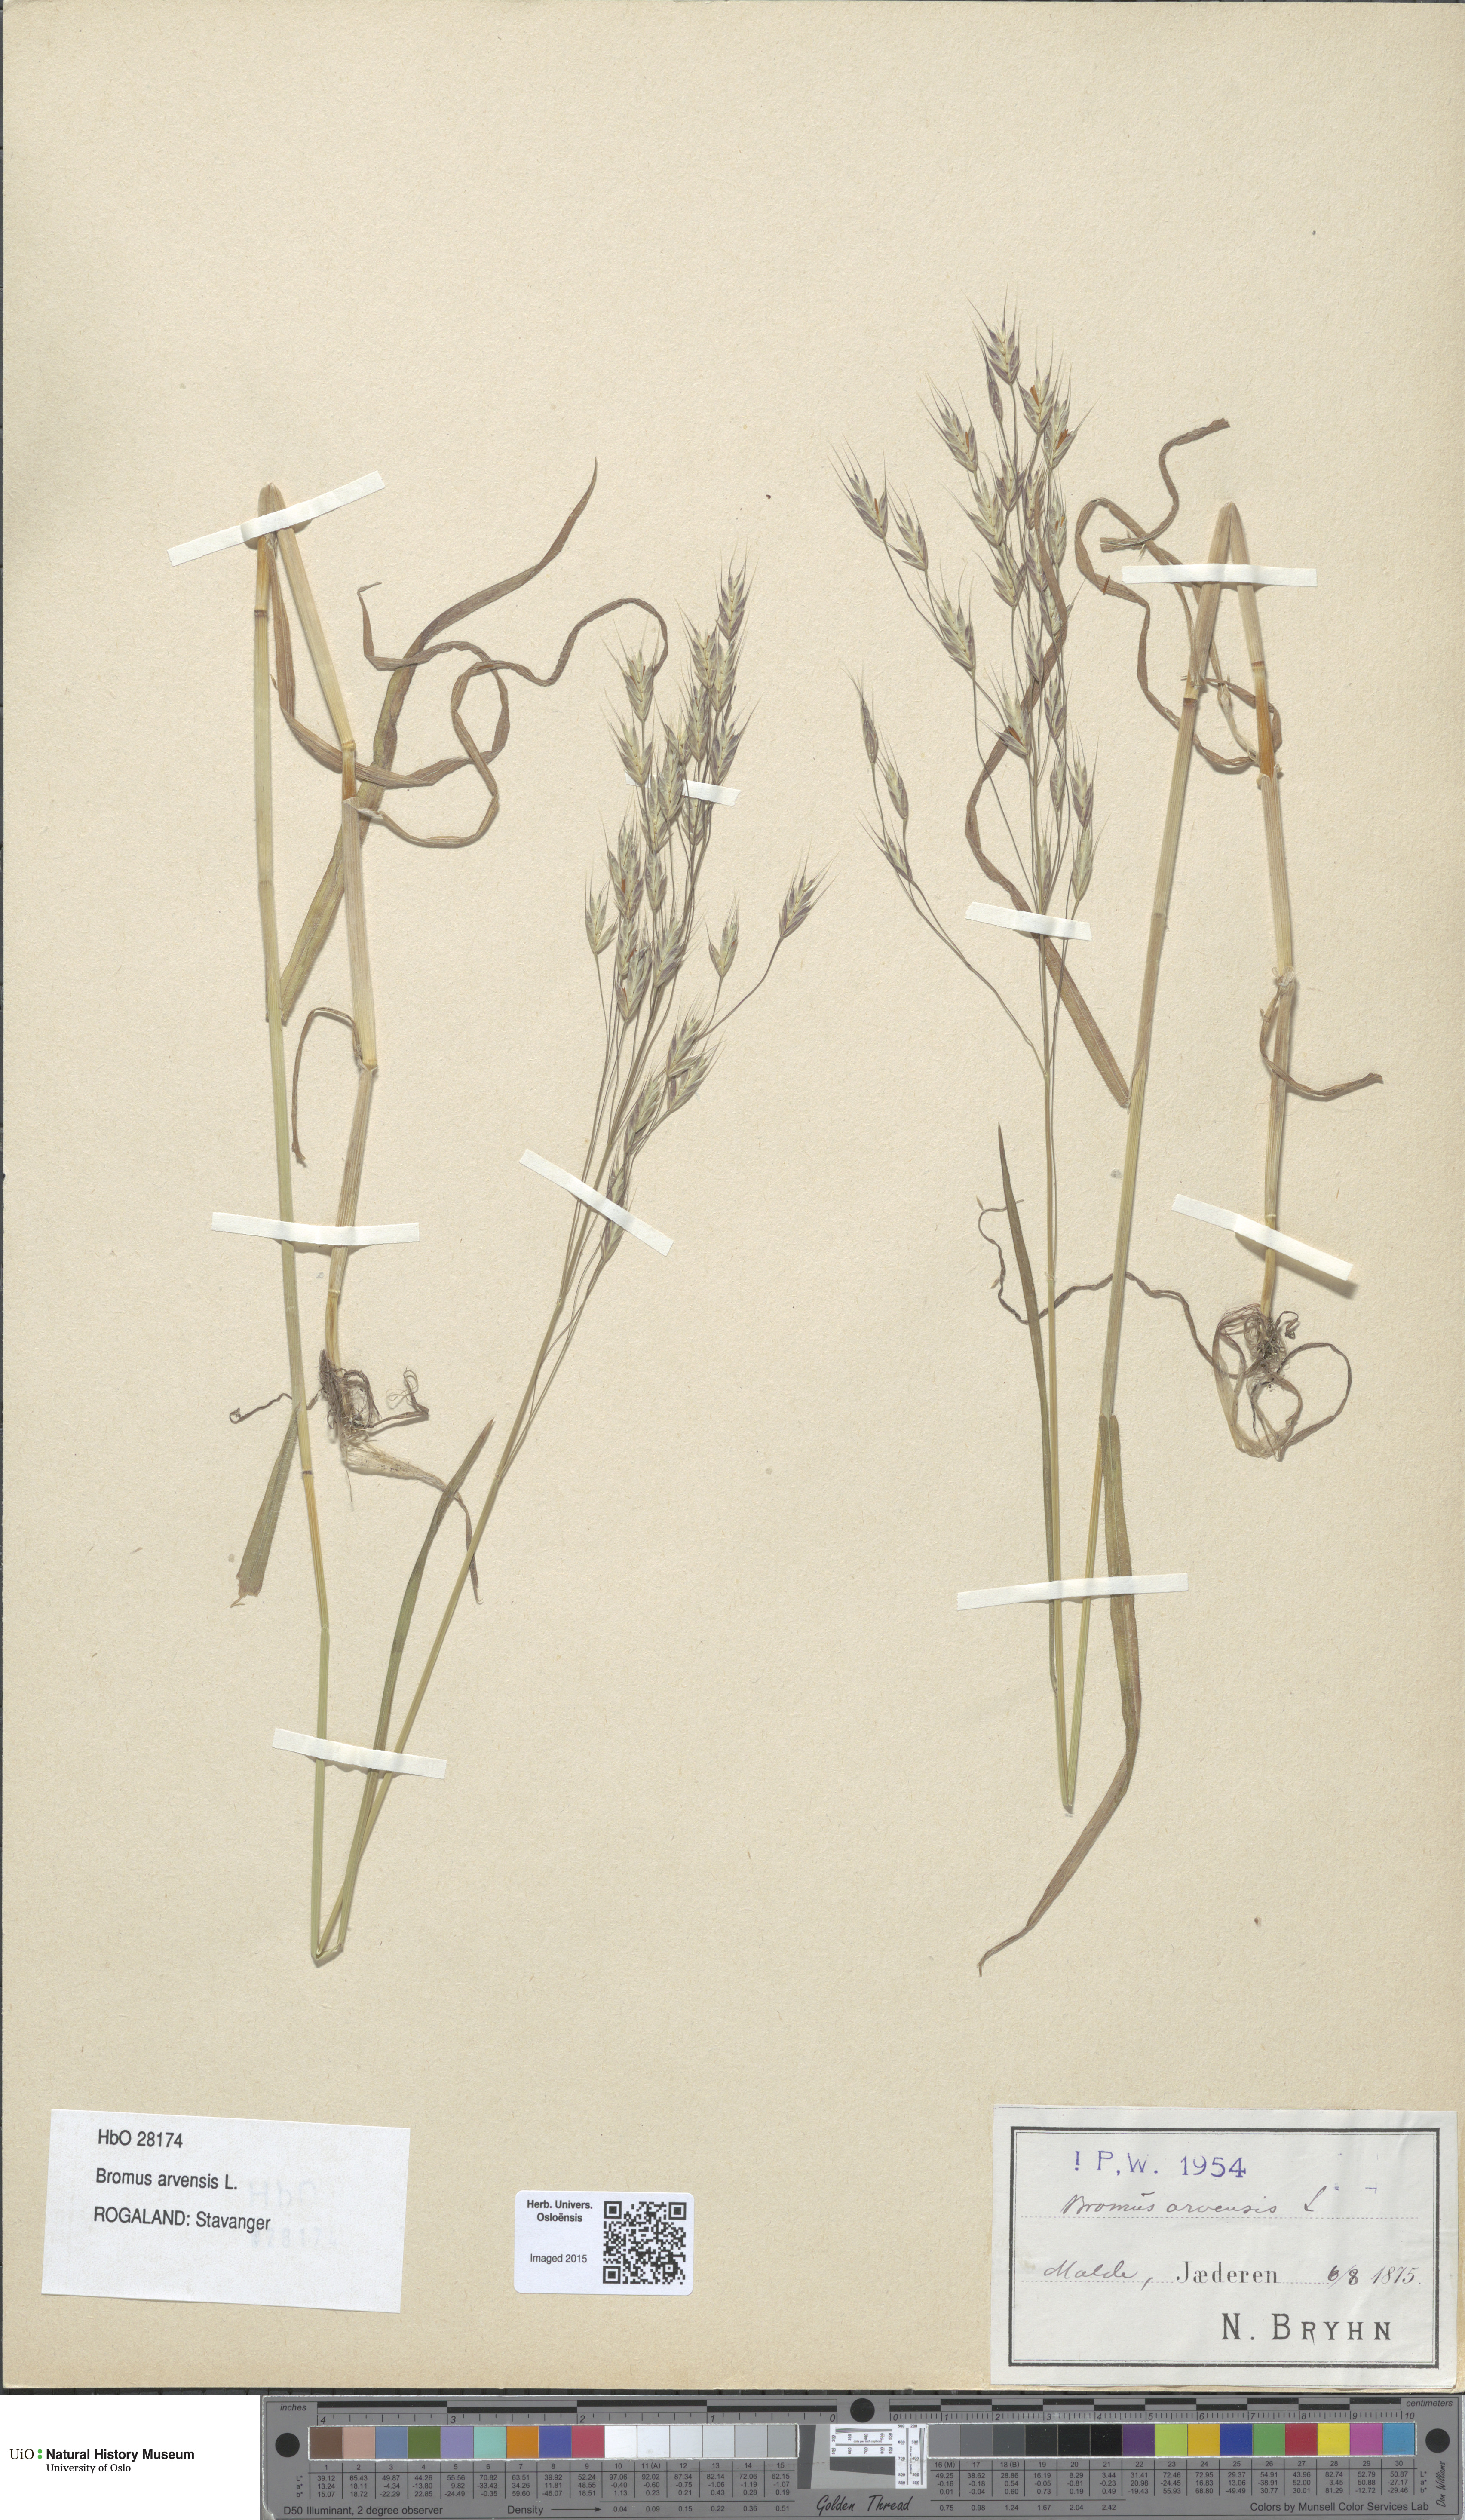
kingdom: Plantae
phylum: Tracheophyta
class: Liliopsida
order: Poales
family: Poaceae
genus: Bromus
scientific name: Bromus arvensis
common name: Field brome
